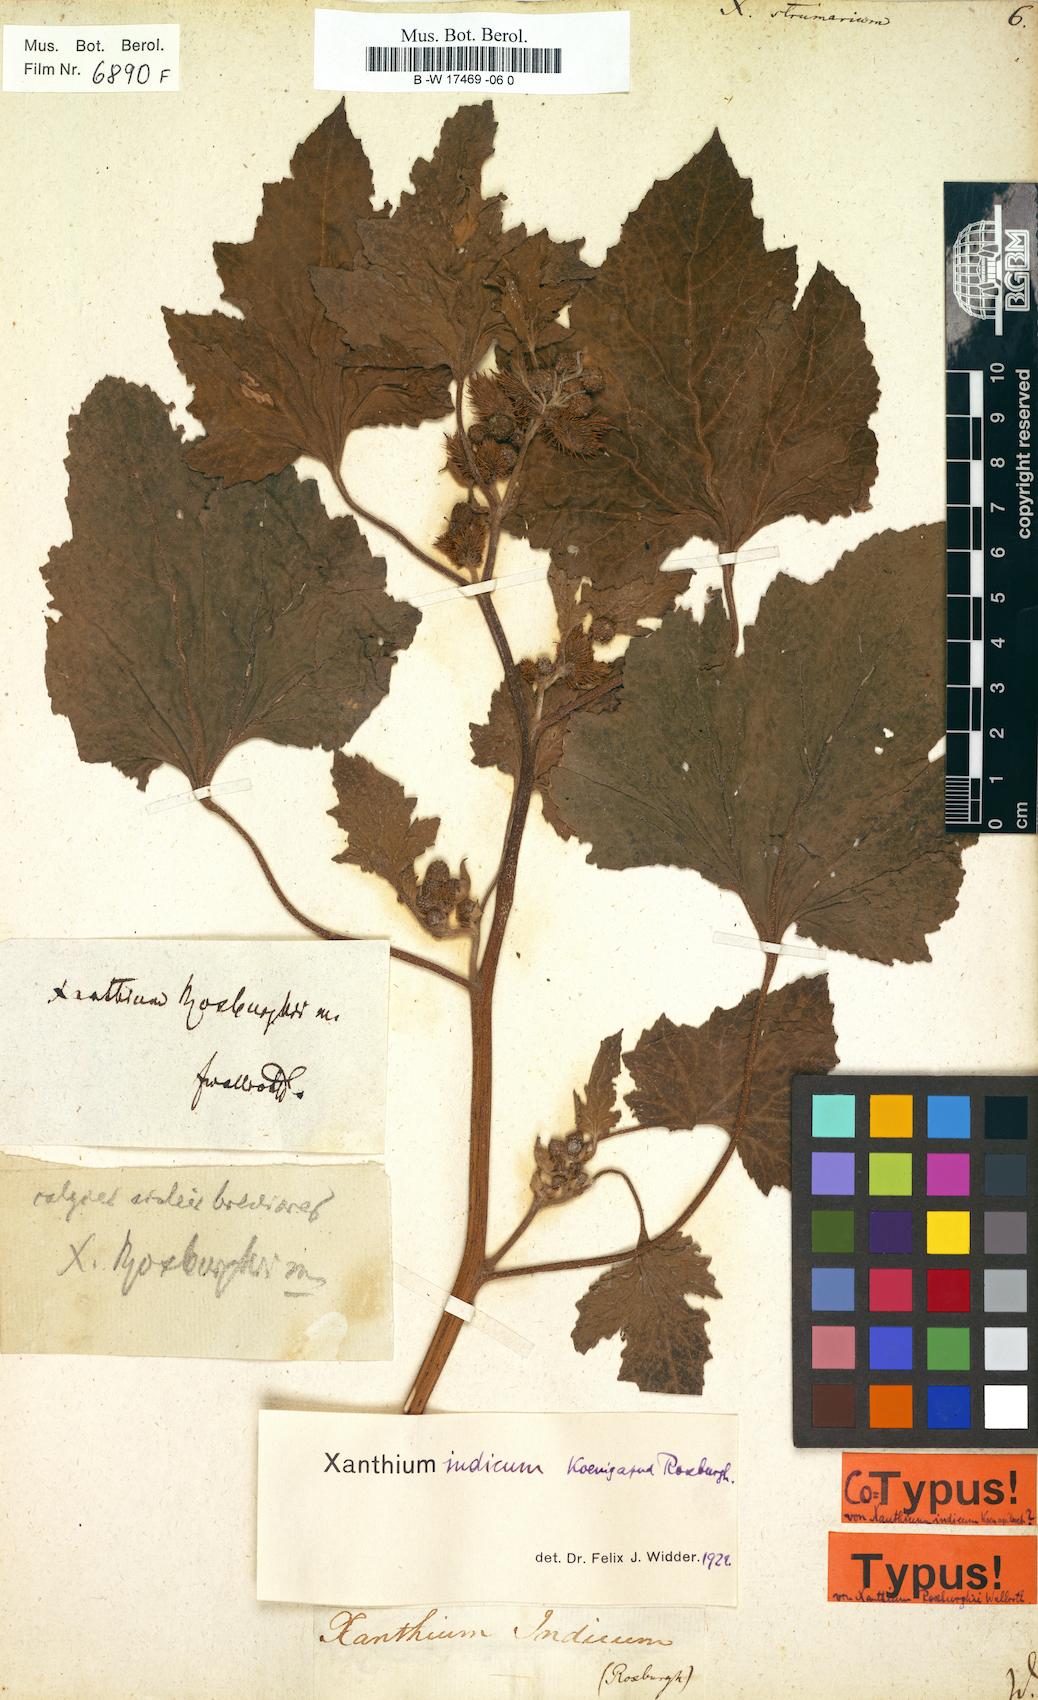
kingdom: Plantae
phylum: Tracheophyta
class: Magnoliopsida
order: Asterales
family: Asteraceae
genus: Xanthium
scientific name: Xanthium strumarium
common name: Rough cocklebur
